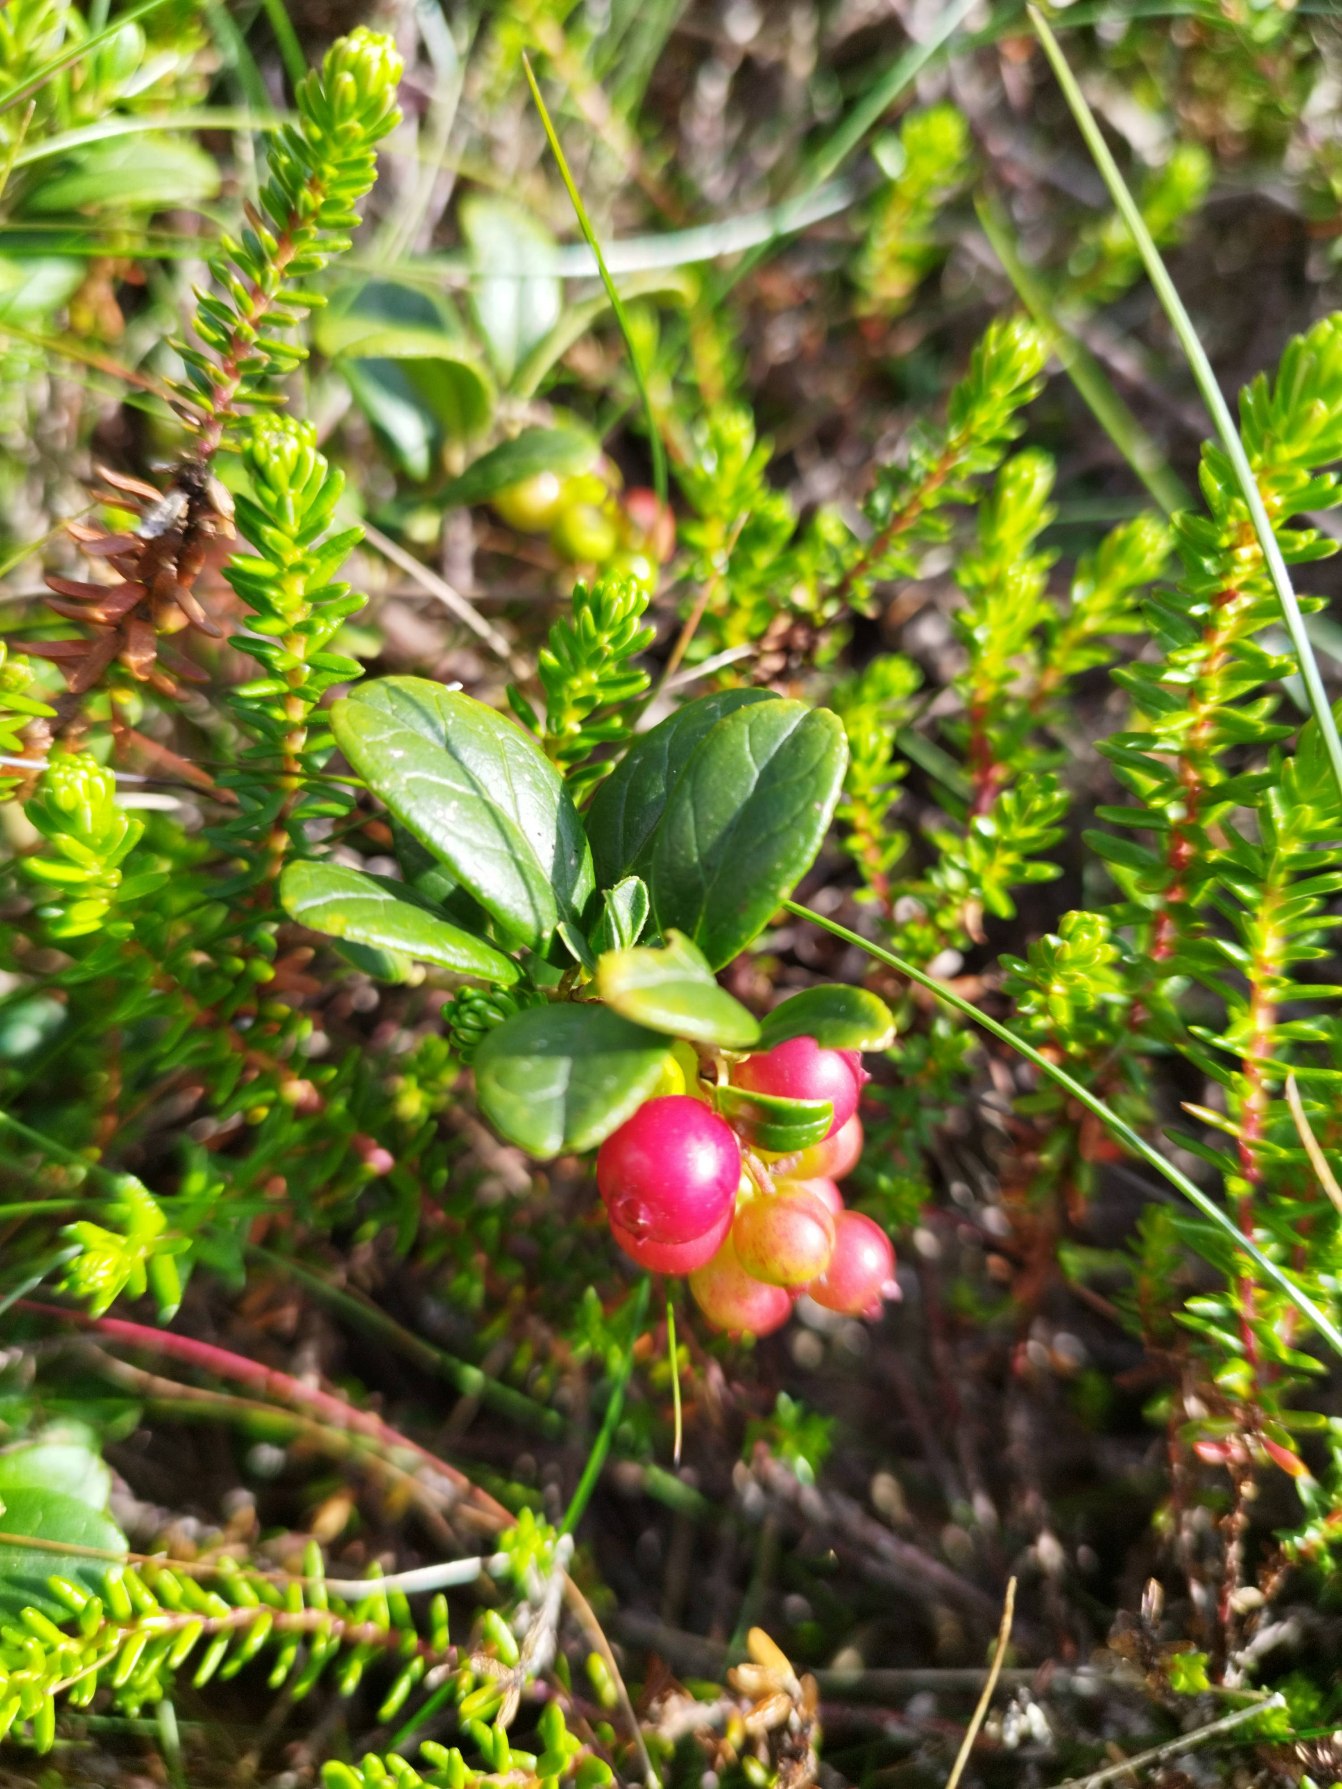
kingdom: Plantae
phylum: Tracheophyta
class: Magnoliopsida
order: Ericales
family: Ericaceae
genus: Vaccinium
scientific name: Vaccinium vitis-idaea
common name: Tyttebær
